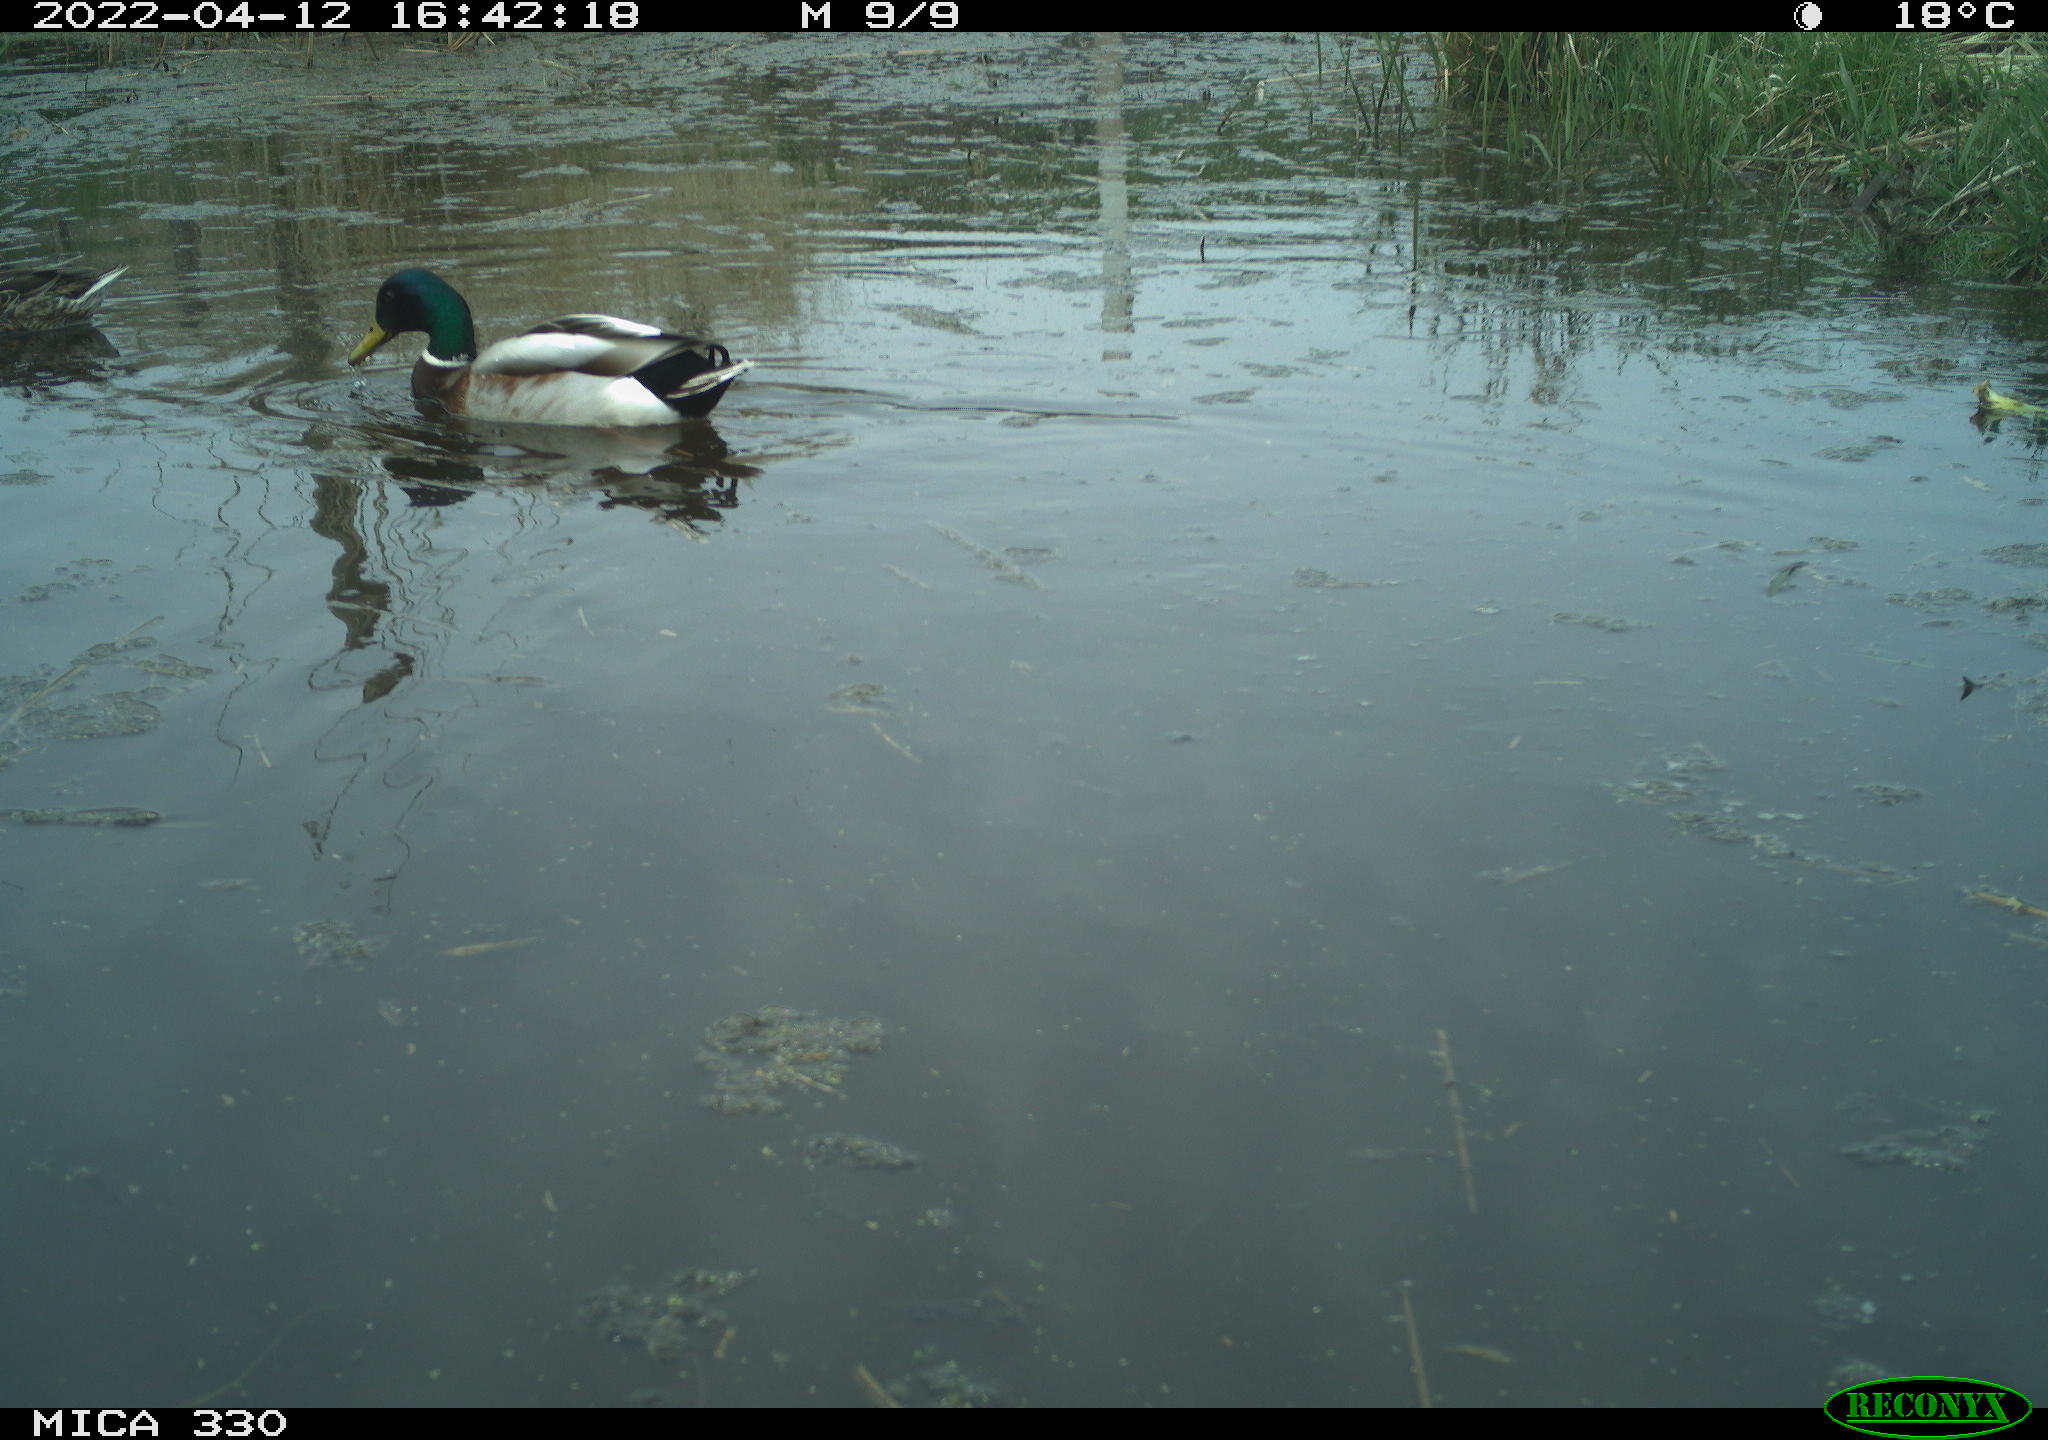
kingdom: Animalia
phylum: Chordata
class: Aves
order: Anseriformes
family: Anatidae
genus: Anas
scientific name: Anas platyrhynchos
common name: Mallard
